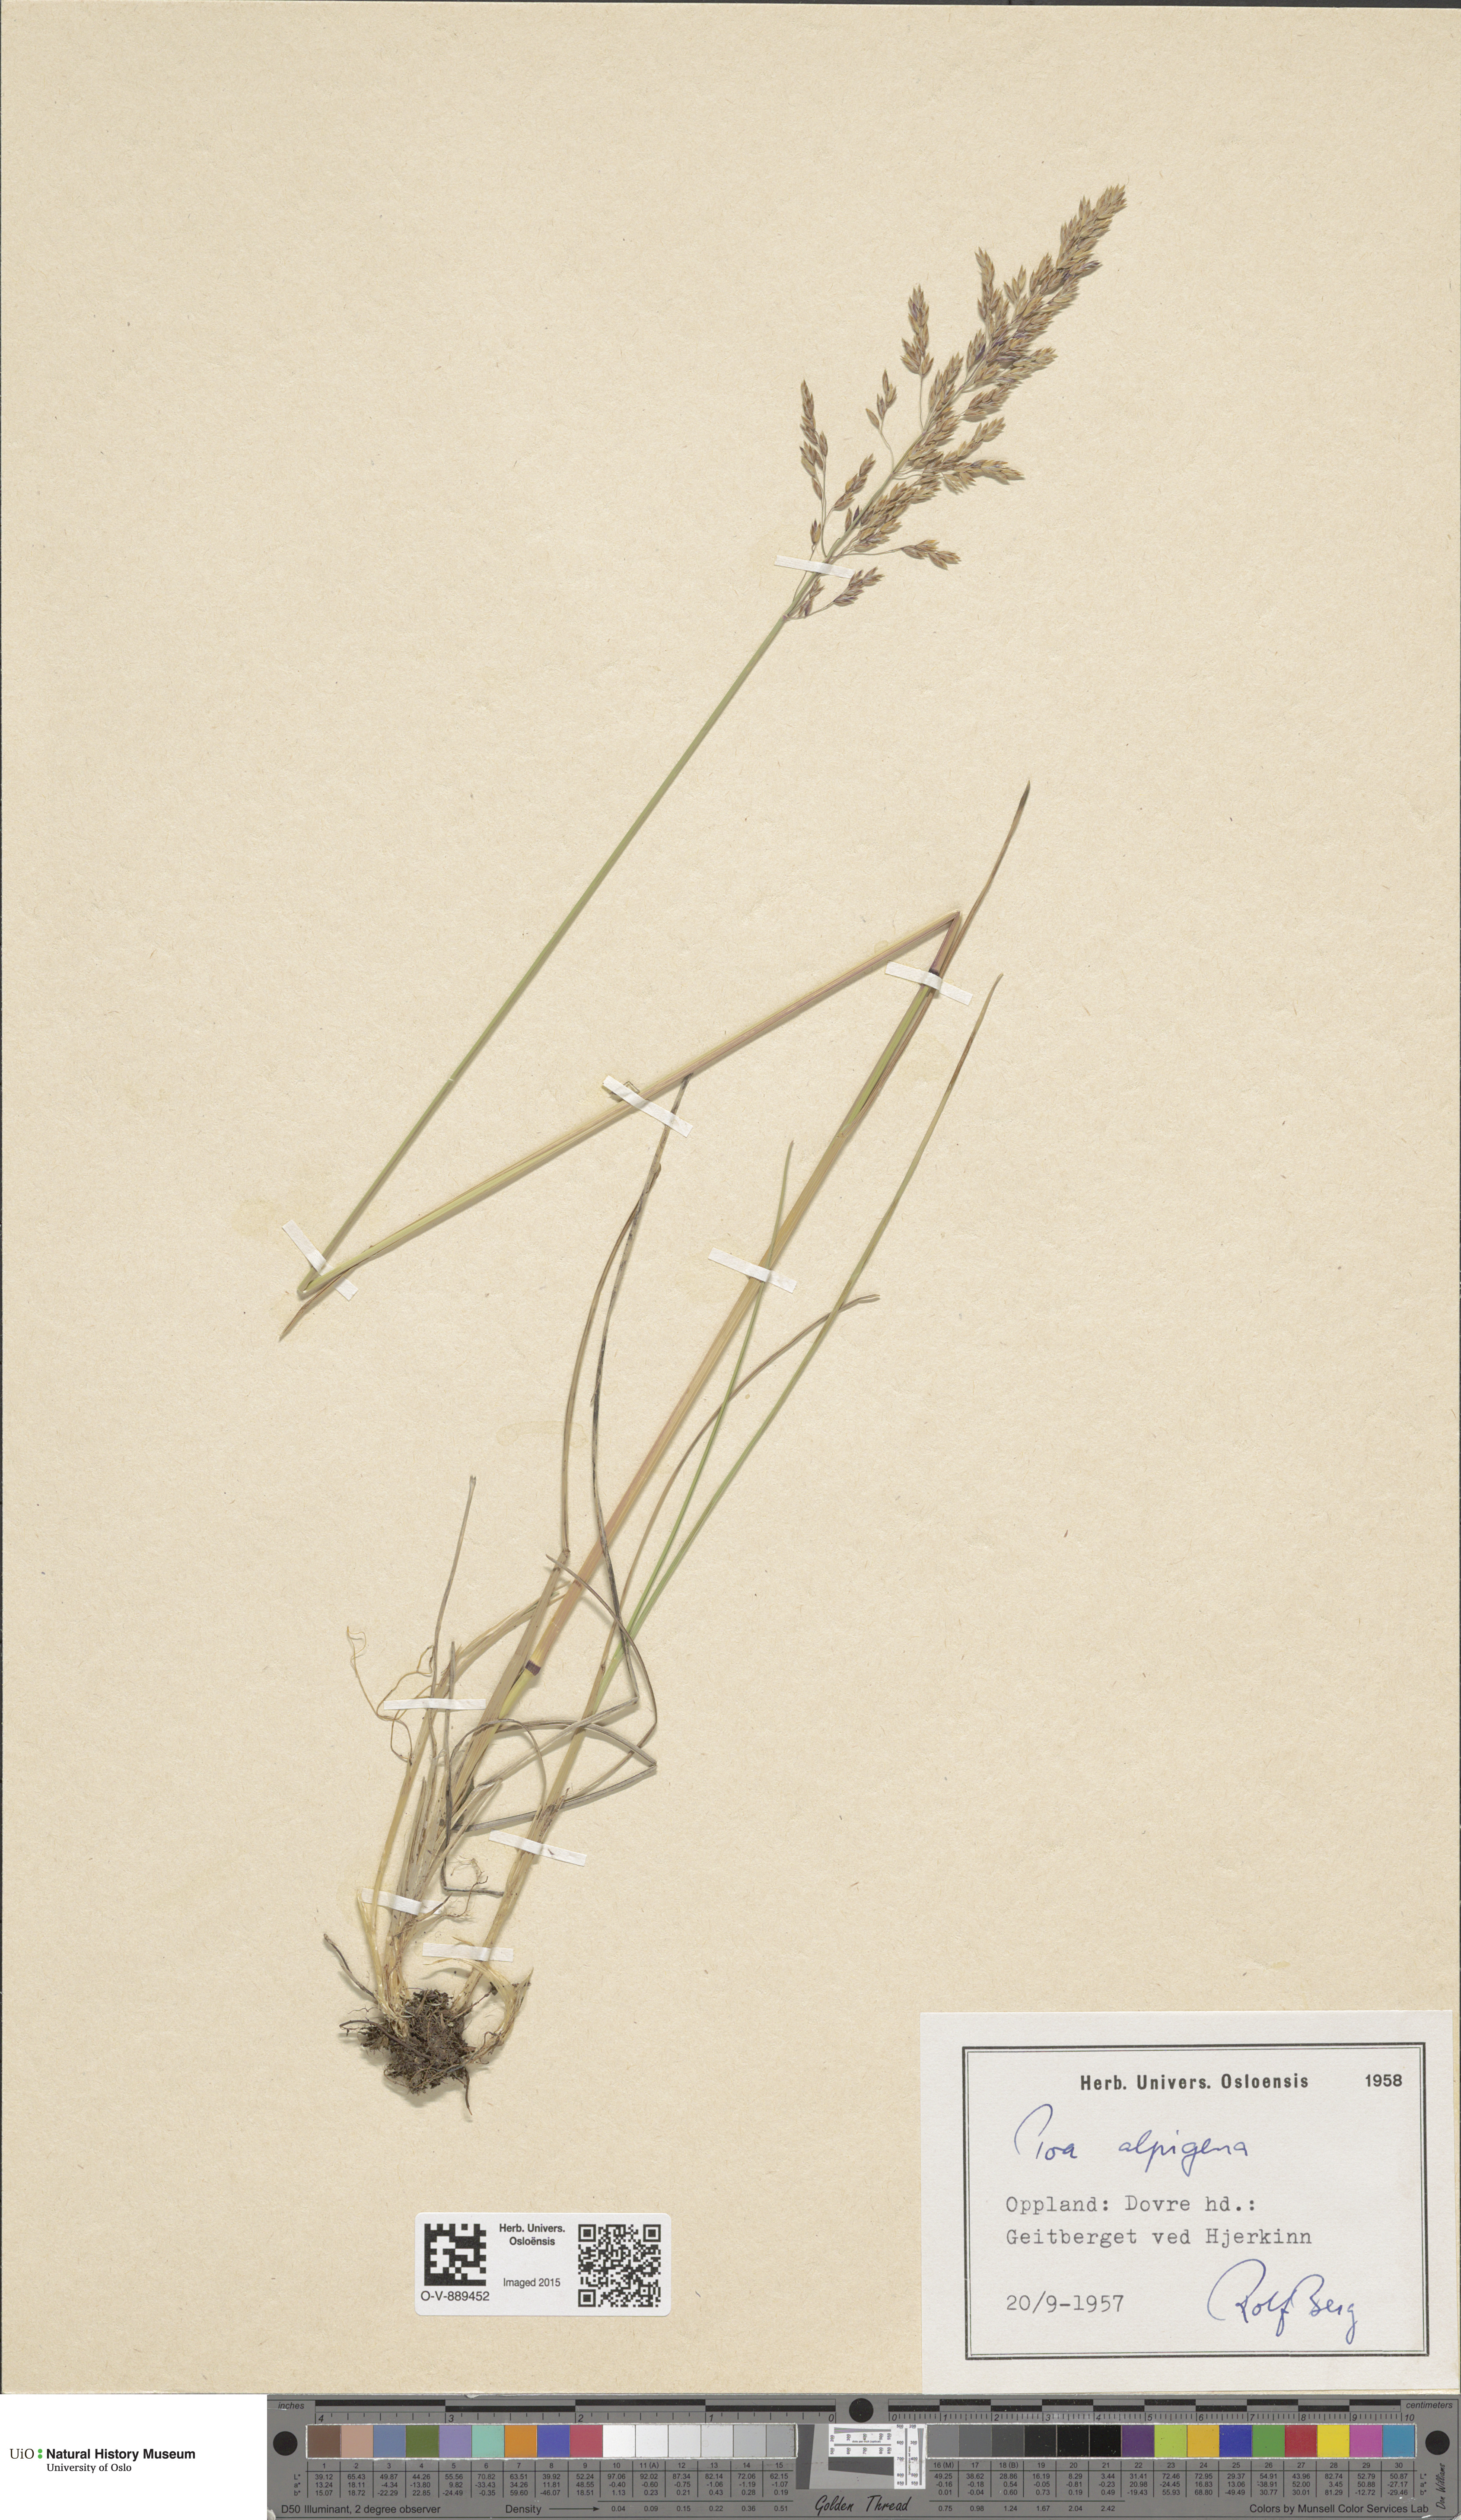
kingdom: Plantae
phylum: Tracheophyta
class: Liliopsida
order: Poales
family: Poaceae
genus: Poa
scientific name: Poa alpigena
